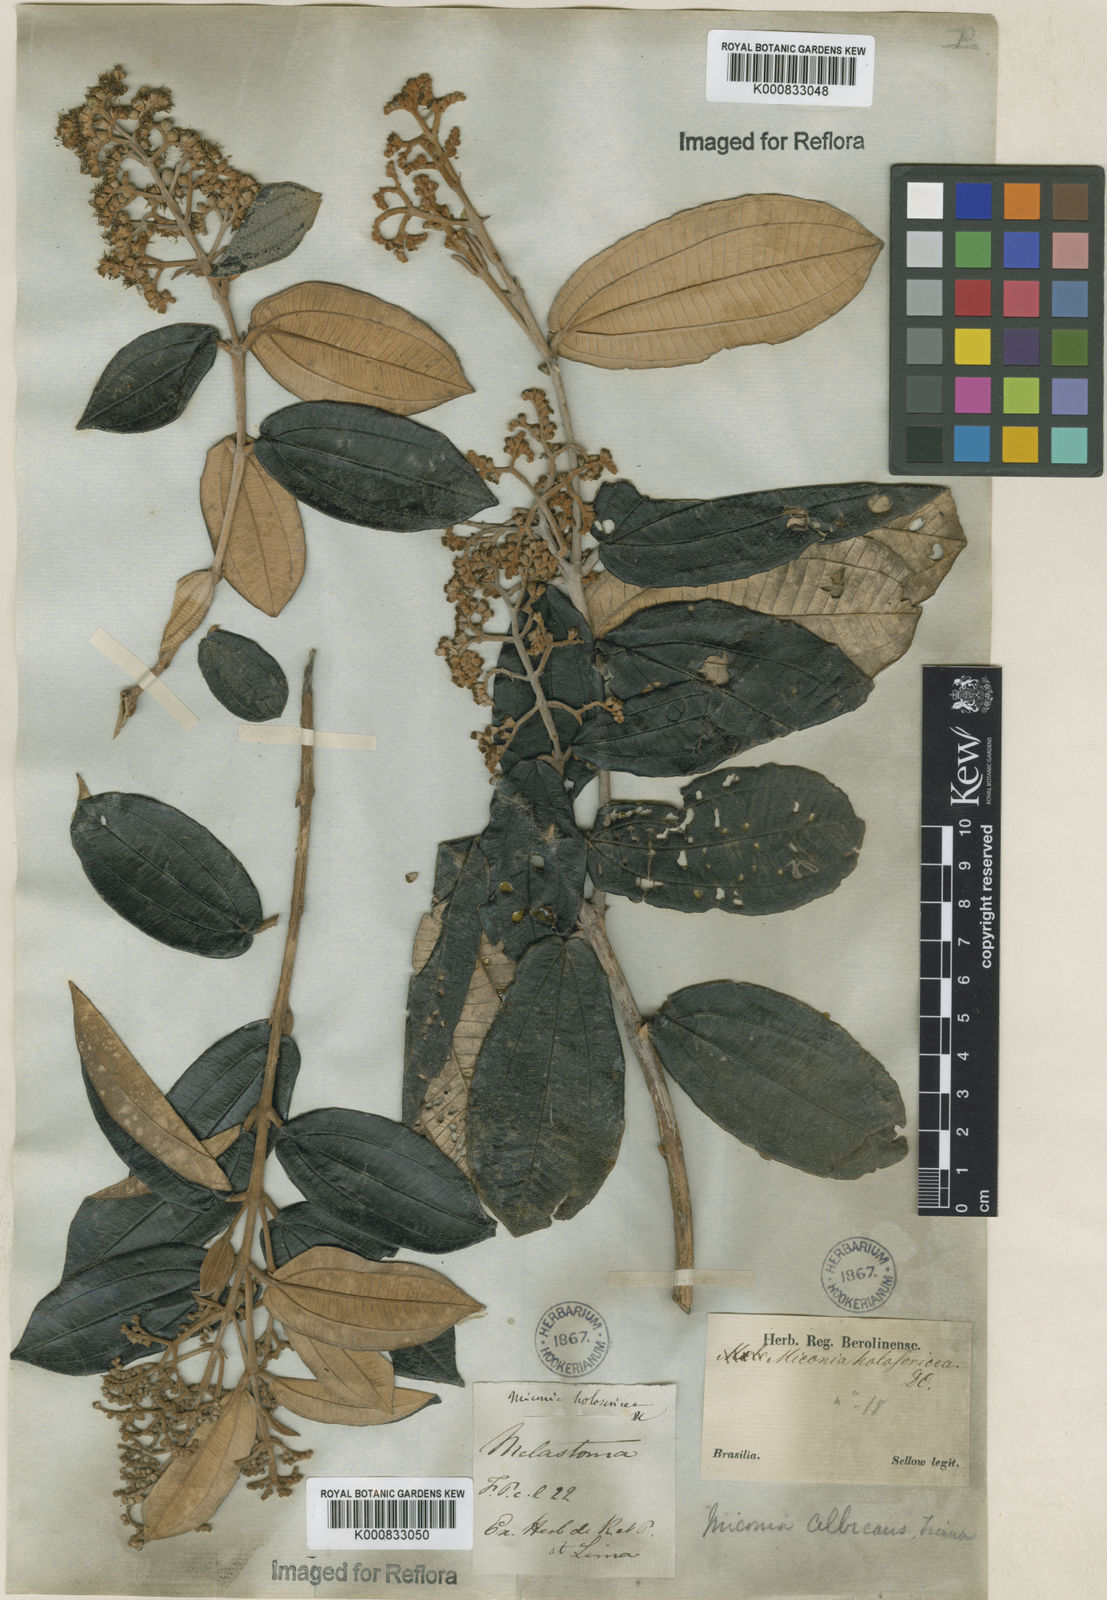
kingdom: Plantae
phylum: Tracheophyta
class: Magnoliopsida
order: Myrtales
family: Melastomataceae
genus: Miconia
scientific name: Miconia albicans
